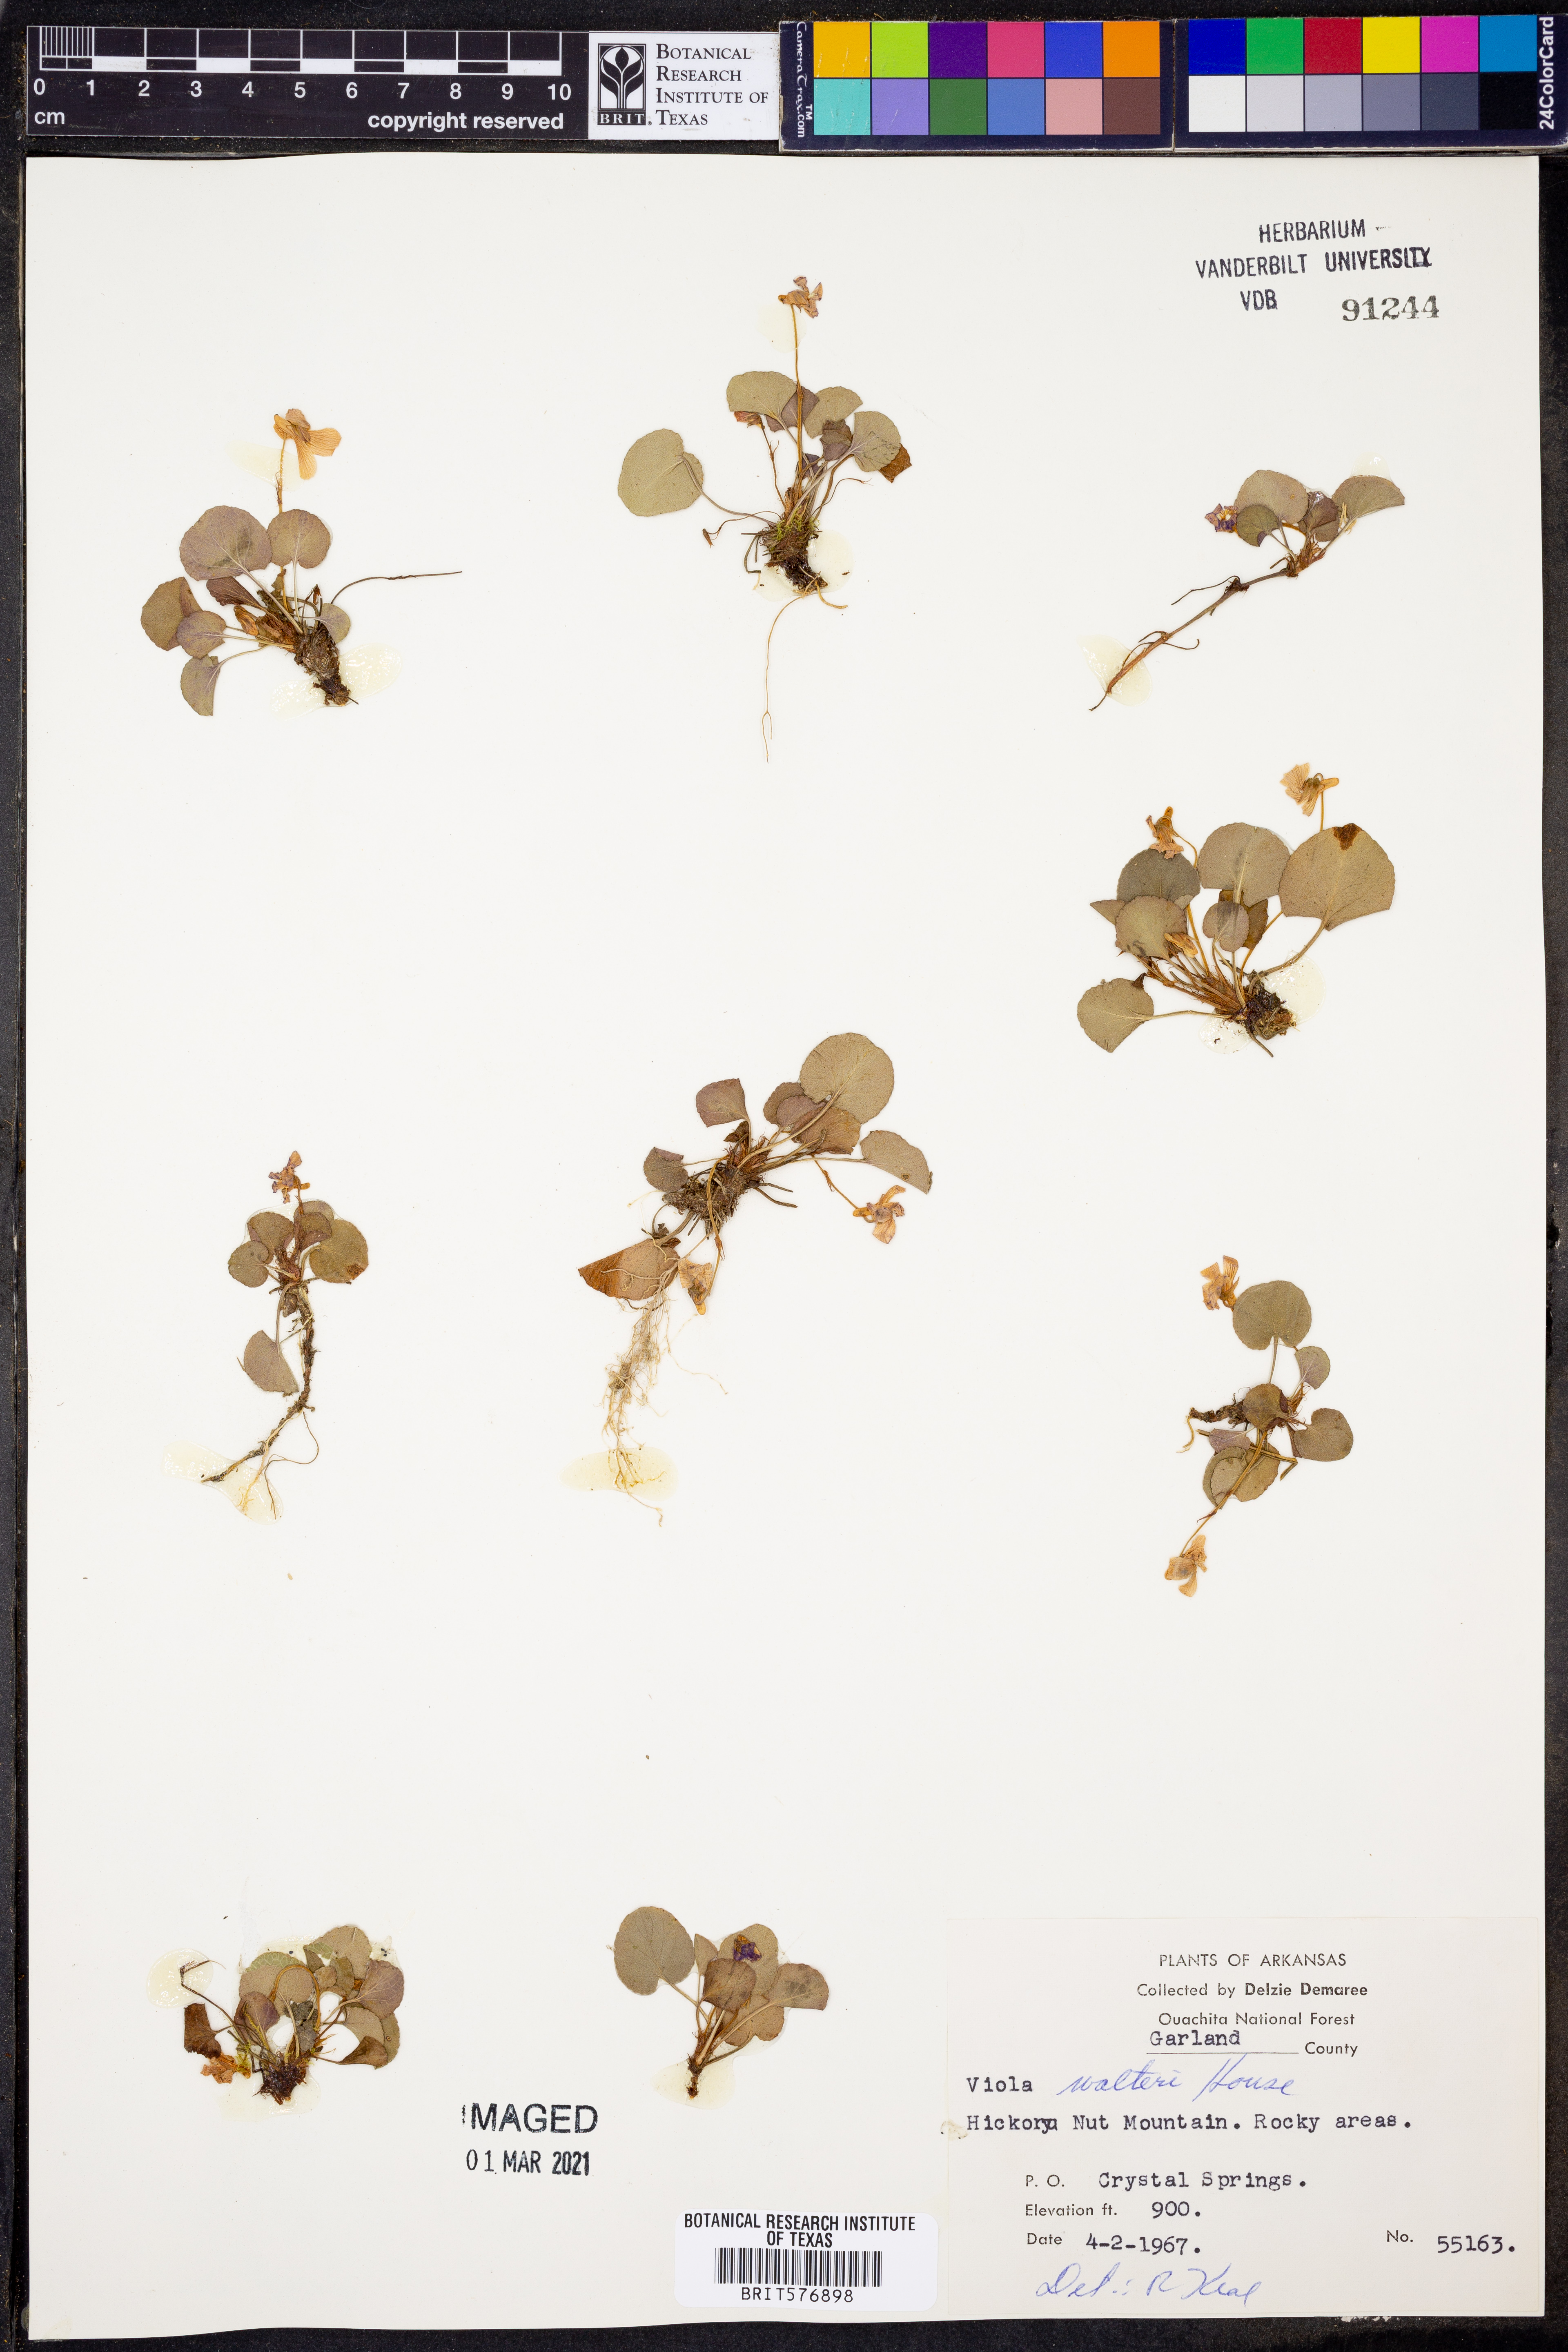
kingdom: Plantae
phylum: Tracheophyta
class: Magnoliopsida
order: Malpighiales
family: Violaceae
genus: Viola
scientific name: Viola walteri
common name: Prostrate southern violet
